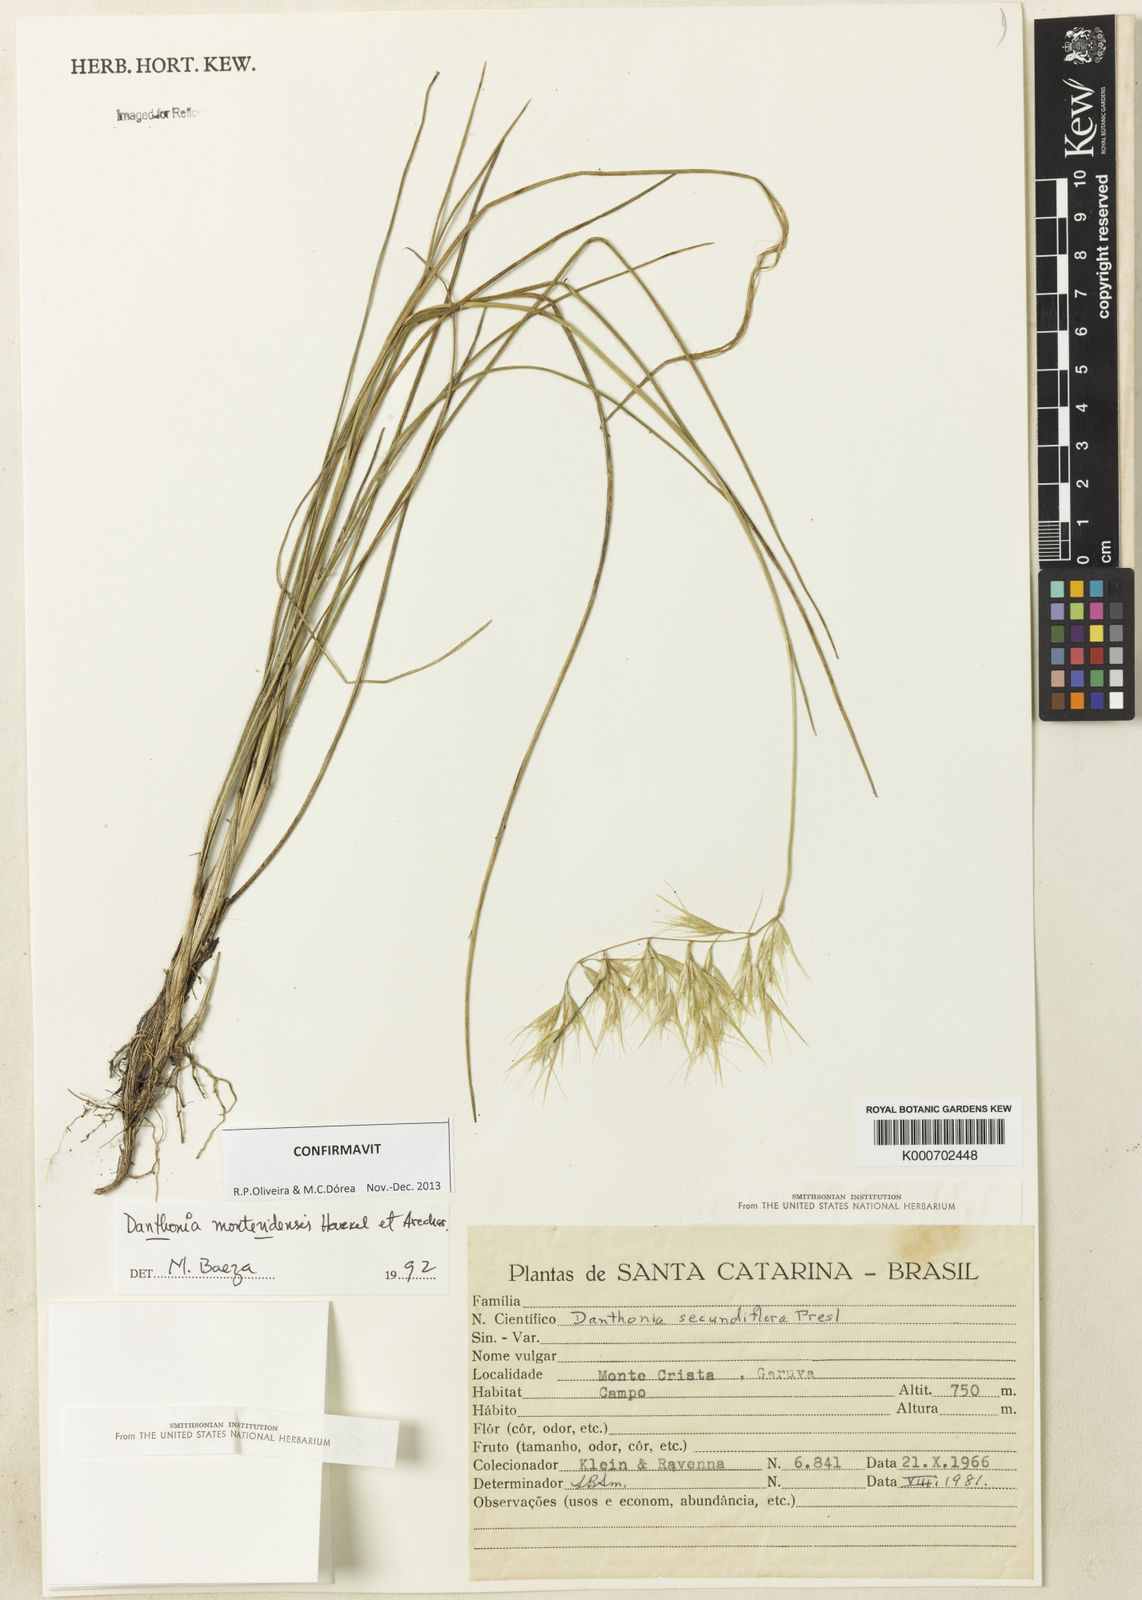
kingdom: Plantae
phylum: Tracheophyta
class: Liliopsida
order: Poales
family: Poaceae
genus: Danthonia
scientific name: Danthonia montevidensis
